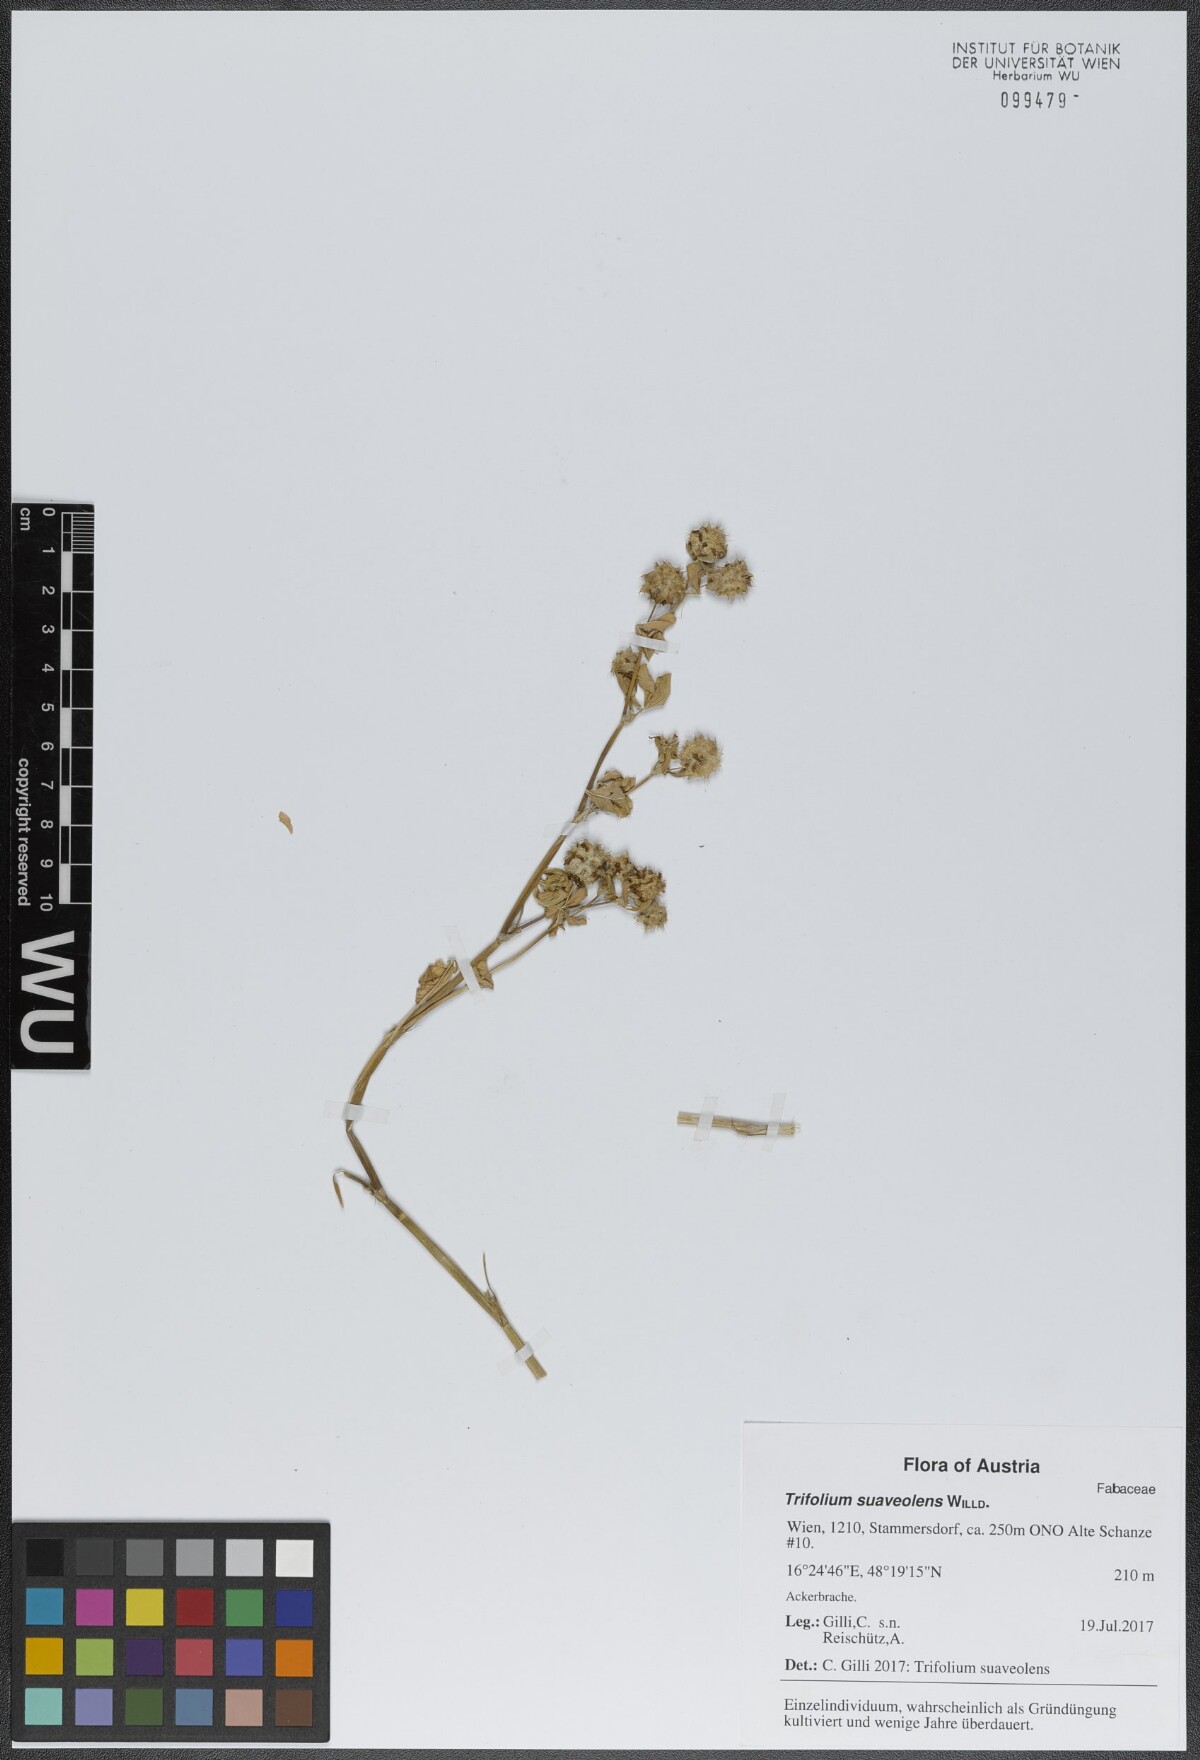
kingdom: Plantae
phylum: Tracheophyta
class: Magnoliopsida
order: Fabales
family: Fabaceae
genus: Trifolium
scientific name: Trifolium resupinatum
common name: Reversed clover
